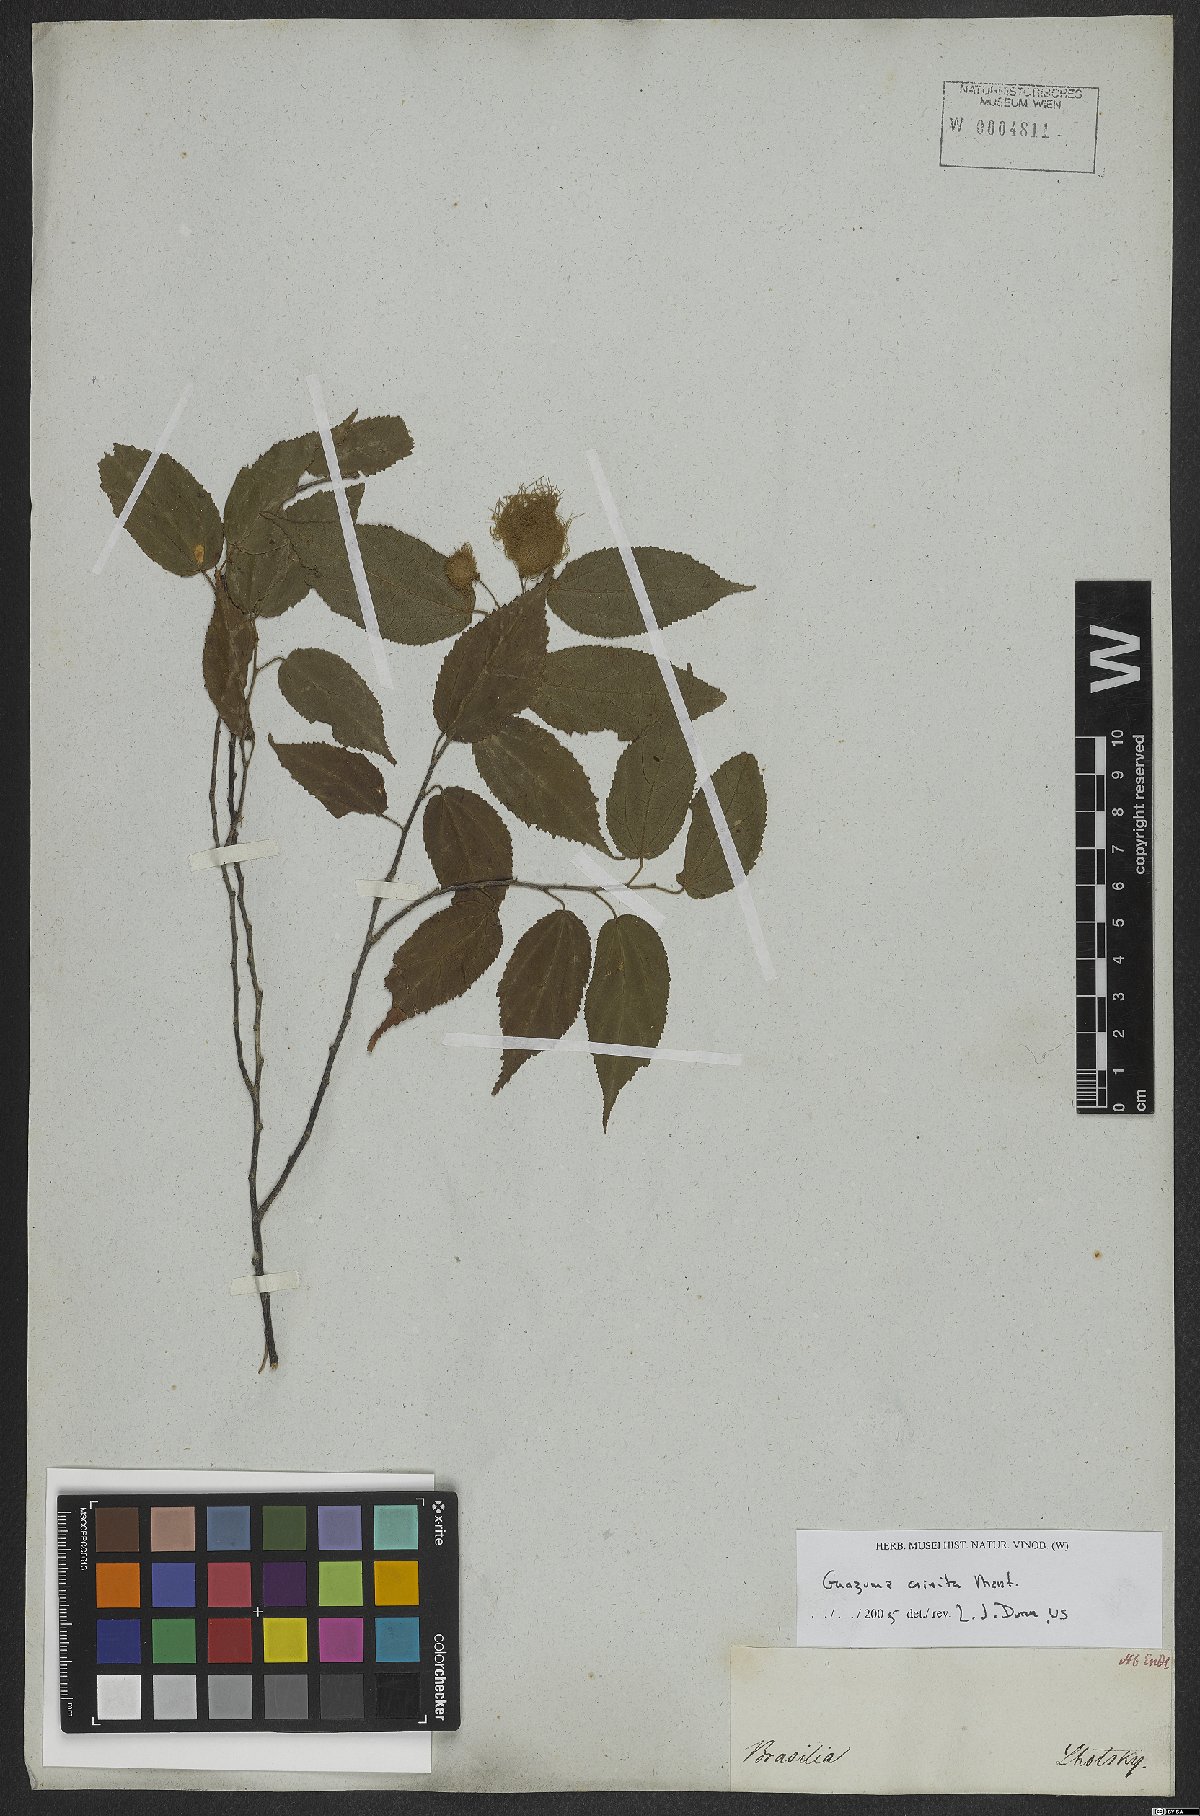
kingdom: Plantae
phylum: Tracheophyta
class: Magnoliopsida
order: Malvales
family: Malvaceae
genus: Guazuma
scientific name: Guazuma crinita
